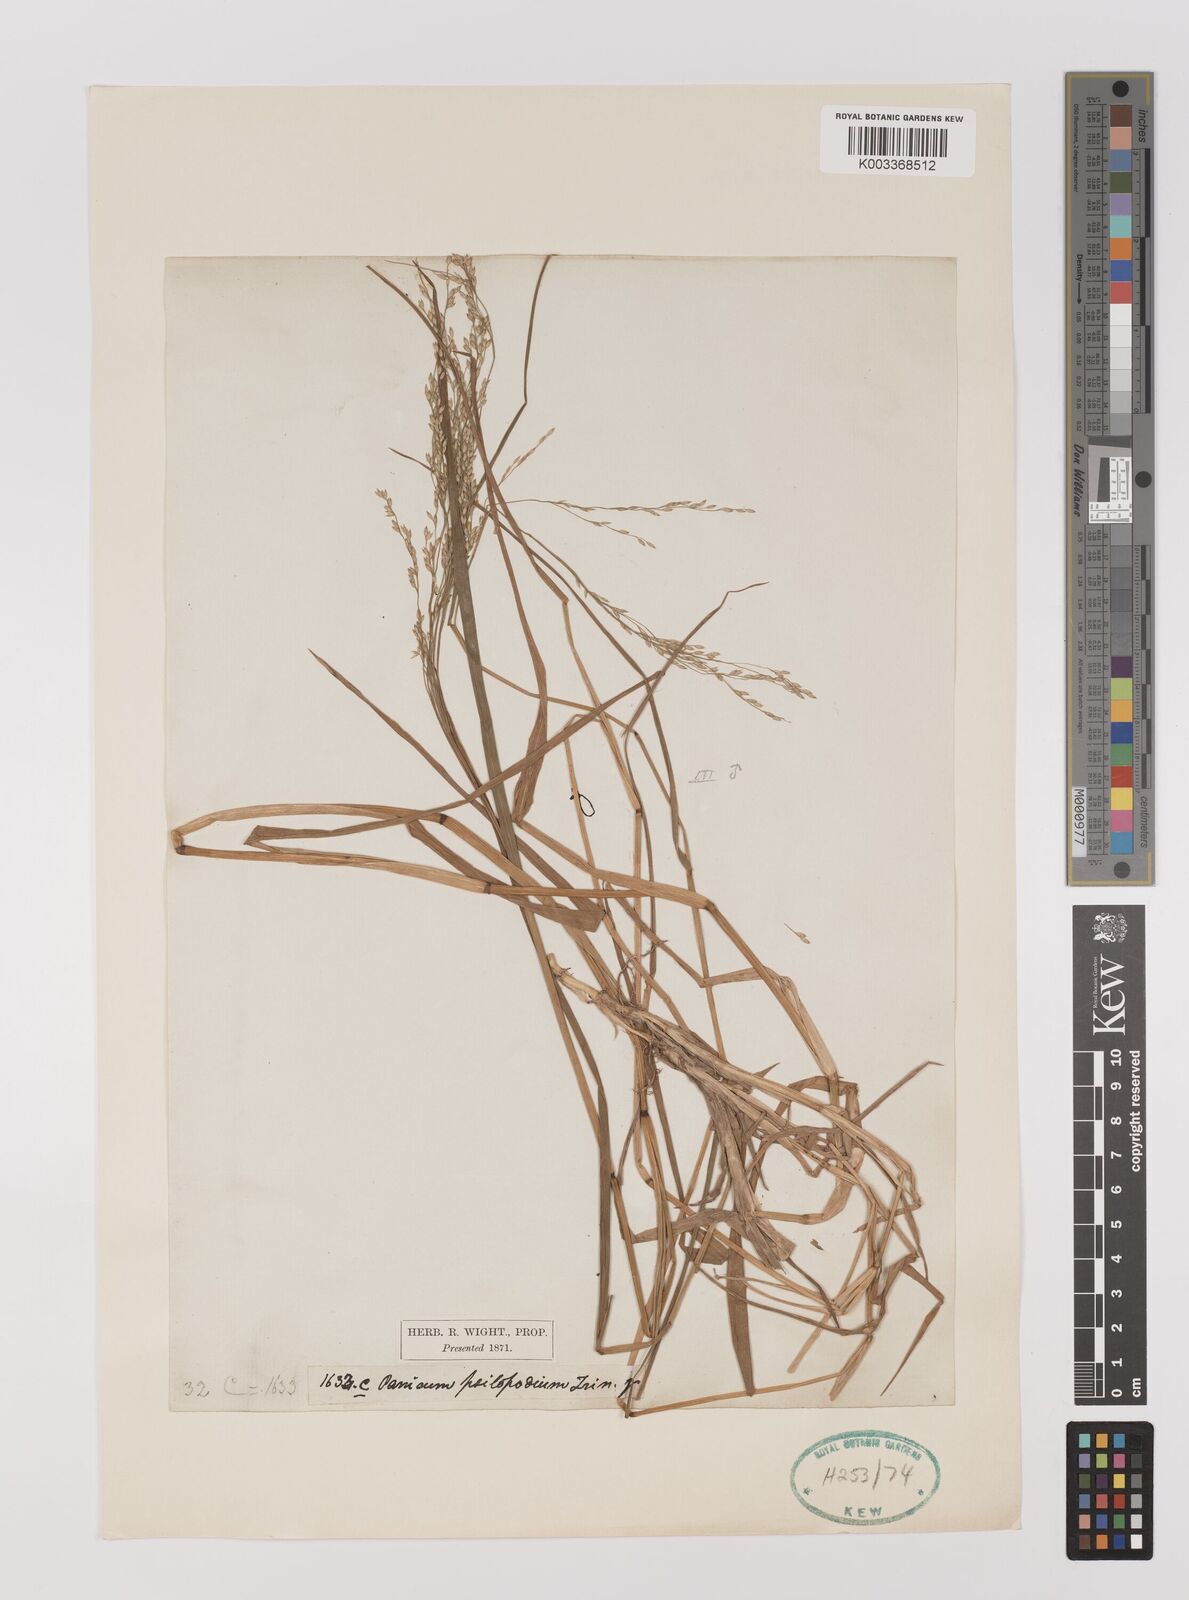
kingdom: Plantae
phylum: Tracheophyta
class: Liliopsida
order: Poales
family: Poaceae
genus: Panicum
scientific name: Panicum sumatrense
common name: Little millet
